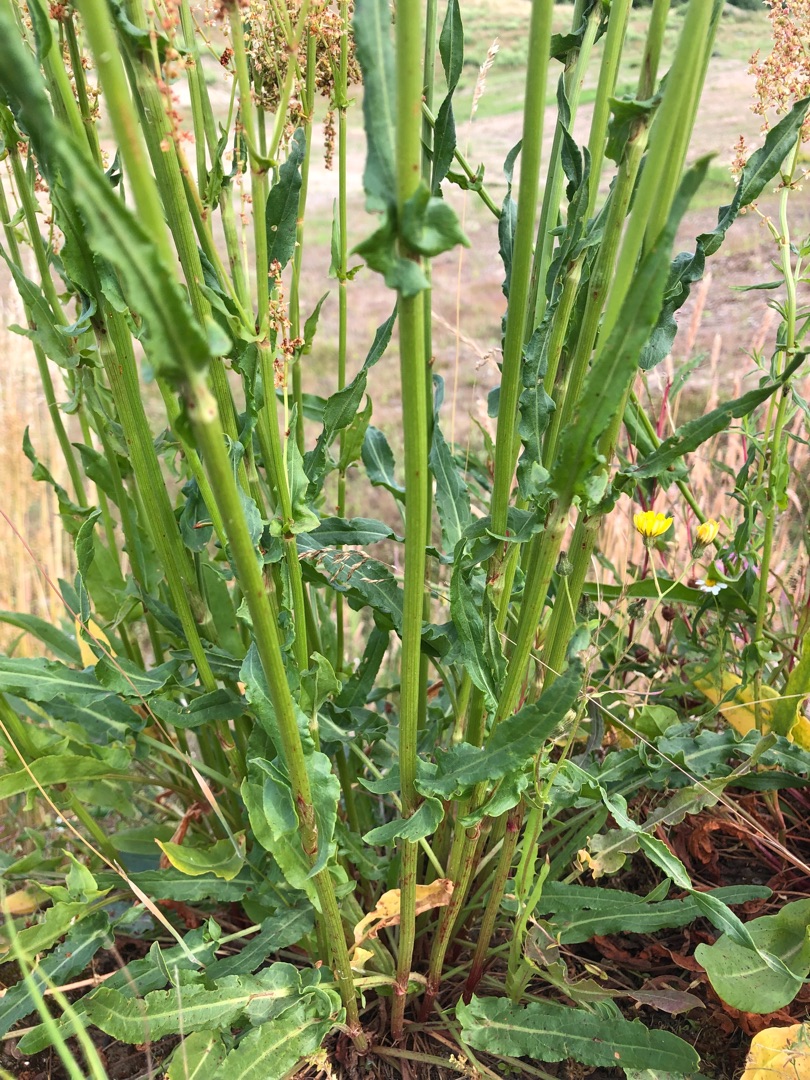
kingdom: Plantae
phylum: Tracheophyta
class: Magnoliopsida
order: Caryophyllales
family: Polygonaceae
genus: Rumex
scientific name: Rumex thyrsiflorus
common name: Dusk-syre
